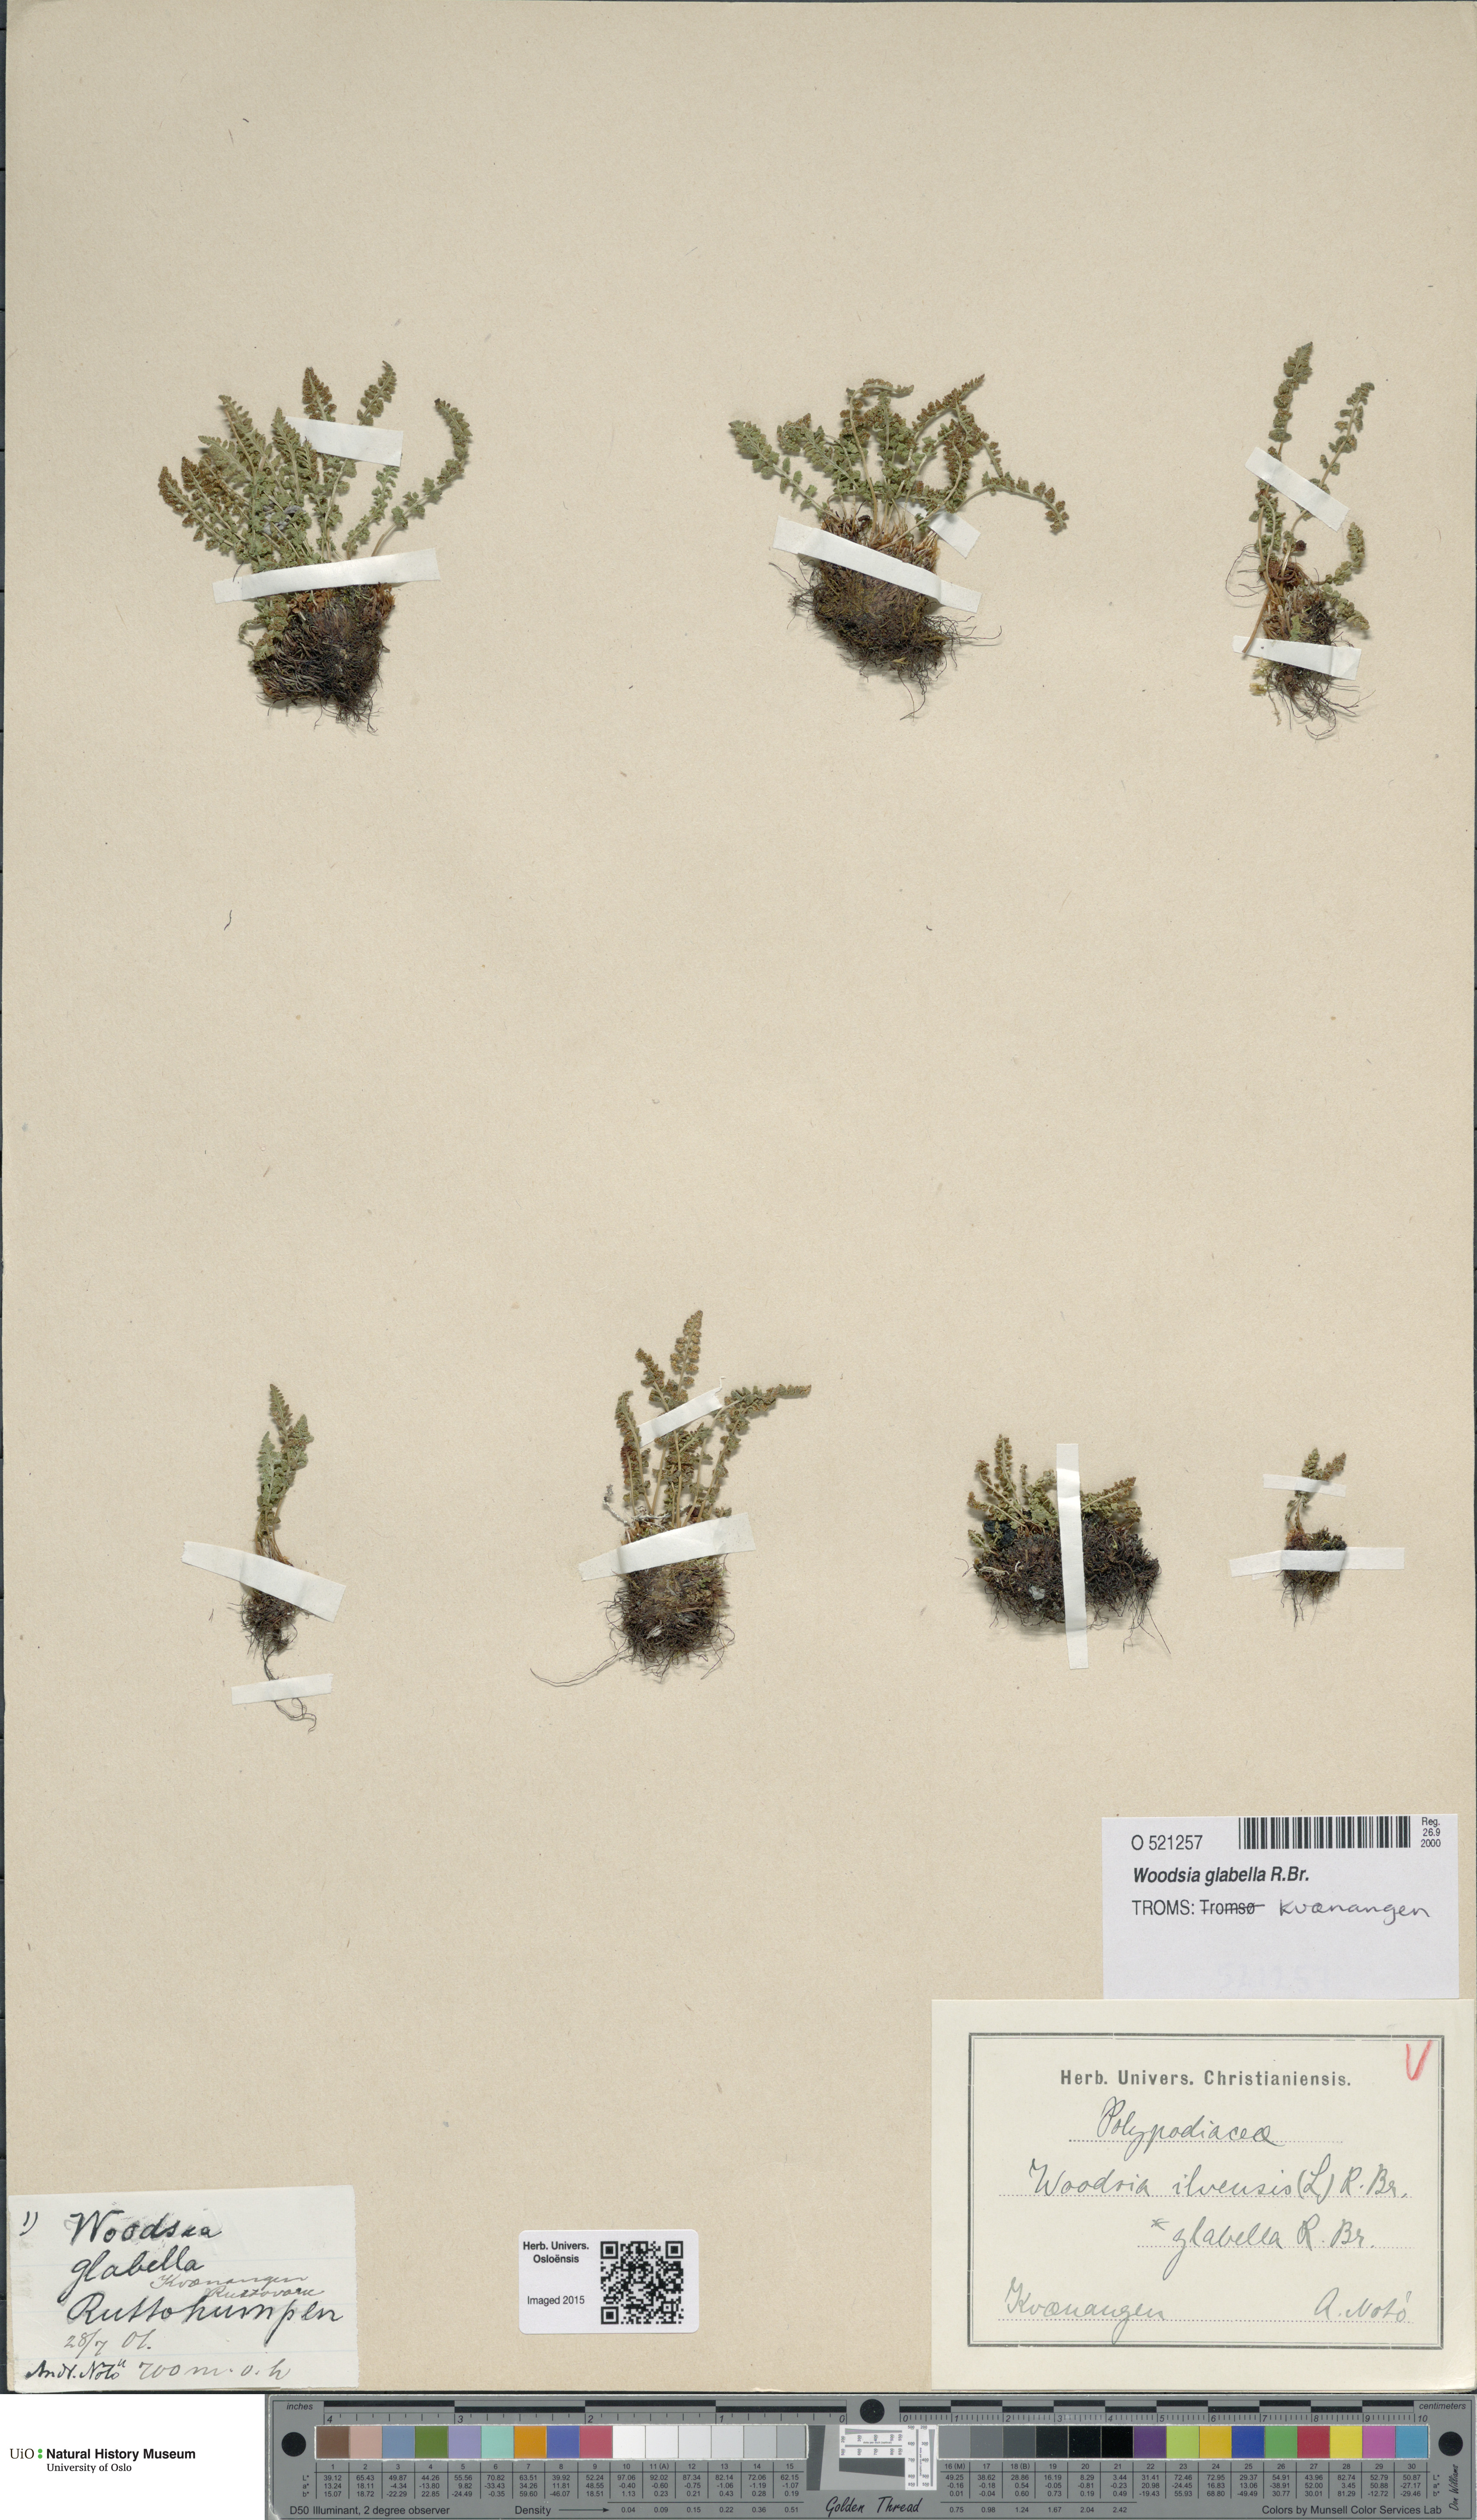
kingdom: Plantae
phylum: Tracheophyta
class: Polypodiopsida
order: Polypodiales
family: Woodsiaceae
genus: Woodsia
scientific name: Woodsia glabella
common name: Smooth woodsia
